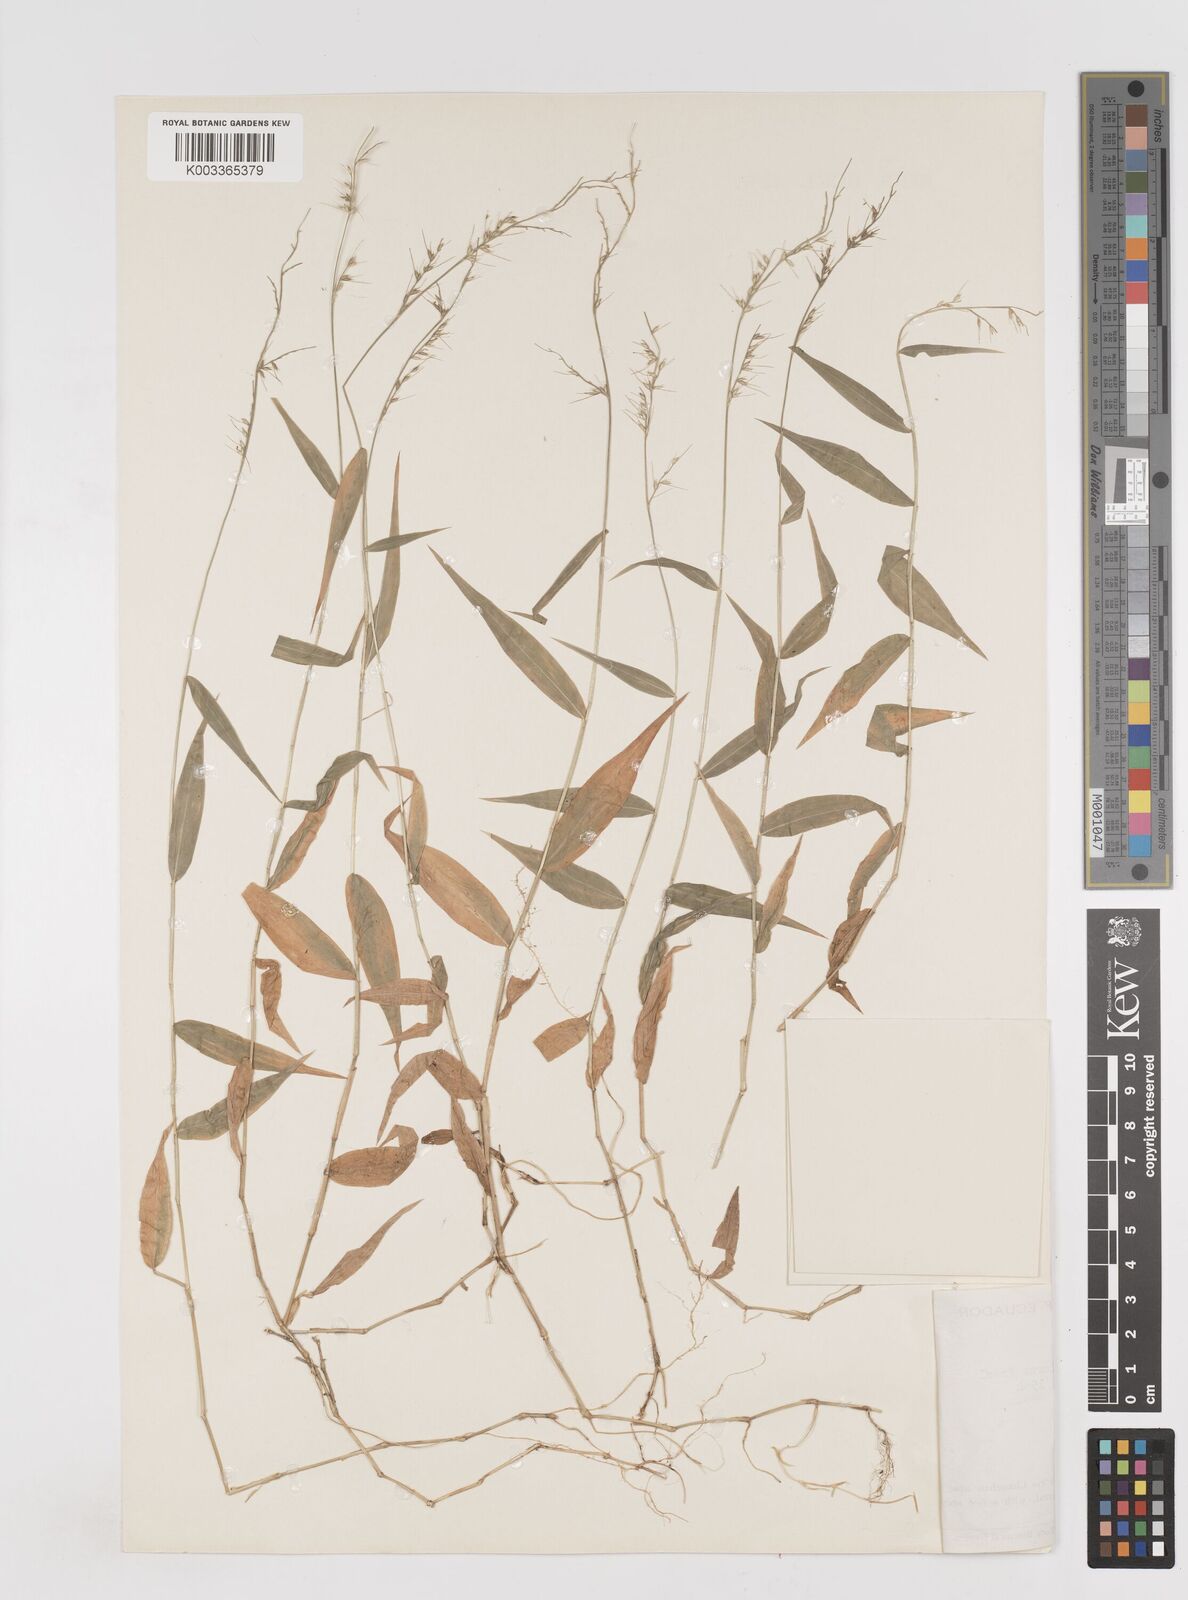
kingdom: Plantae
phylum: Tracheophyta
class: Liliopsida
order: Poales
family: Poaceae
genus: Oplismenus
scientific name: Oplismenus compositus
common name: Running mountain grass
